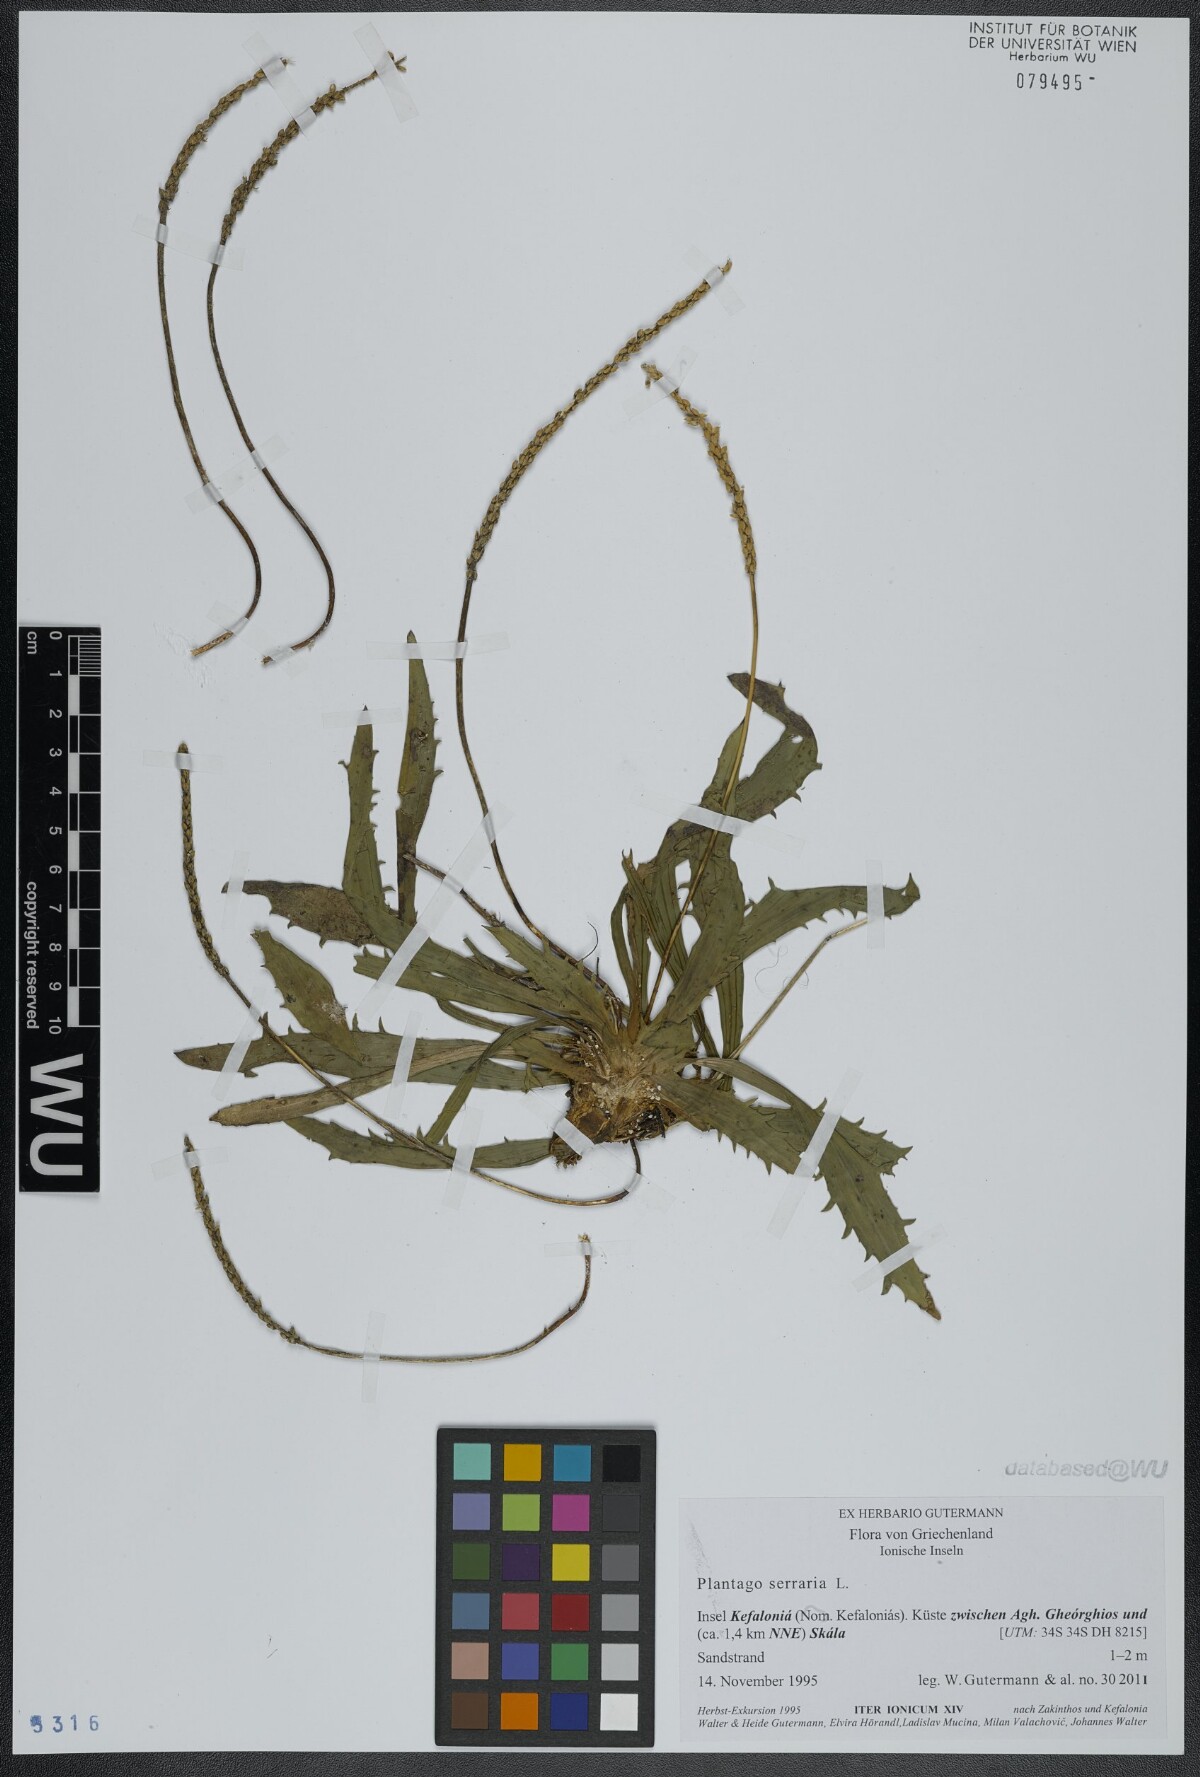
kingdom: Plantae
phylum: Tracheophyta
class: Magnoliopsida
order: Lamiales
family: Plantaginaceae
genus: Plantago
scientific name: Plantago serraria
